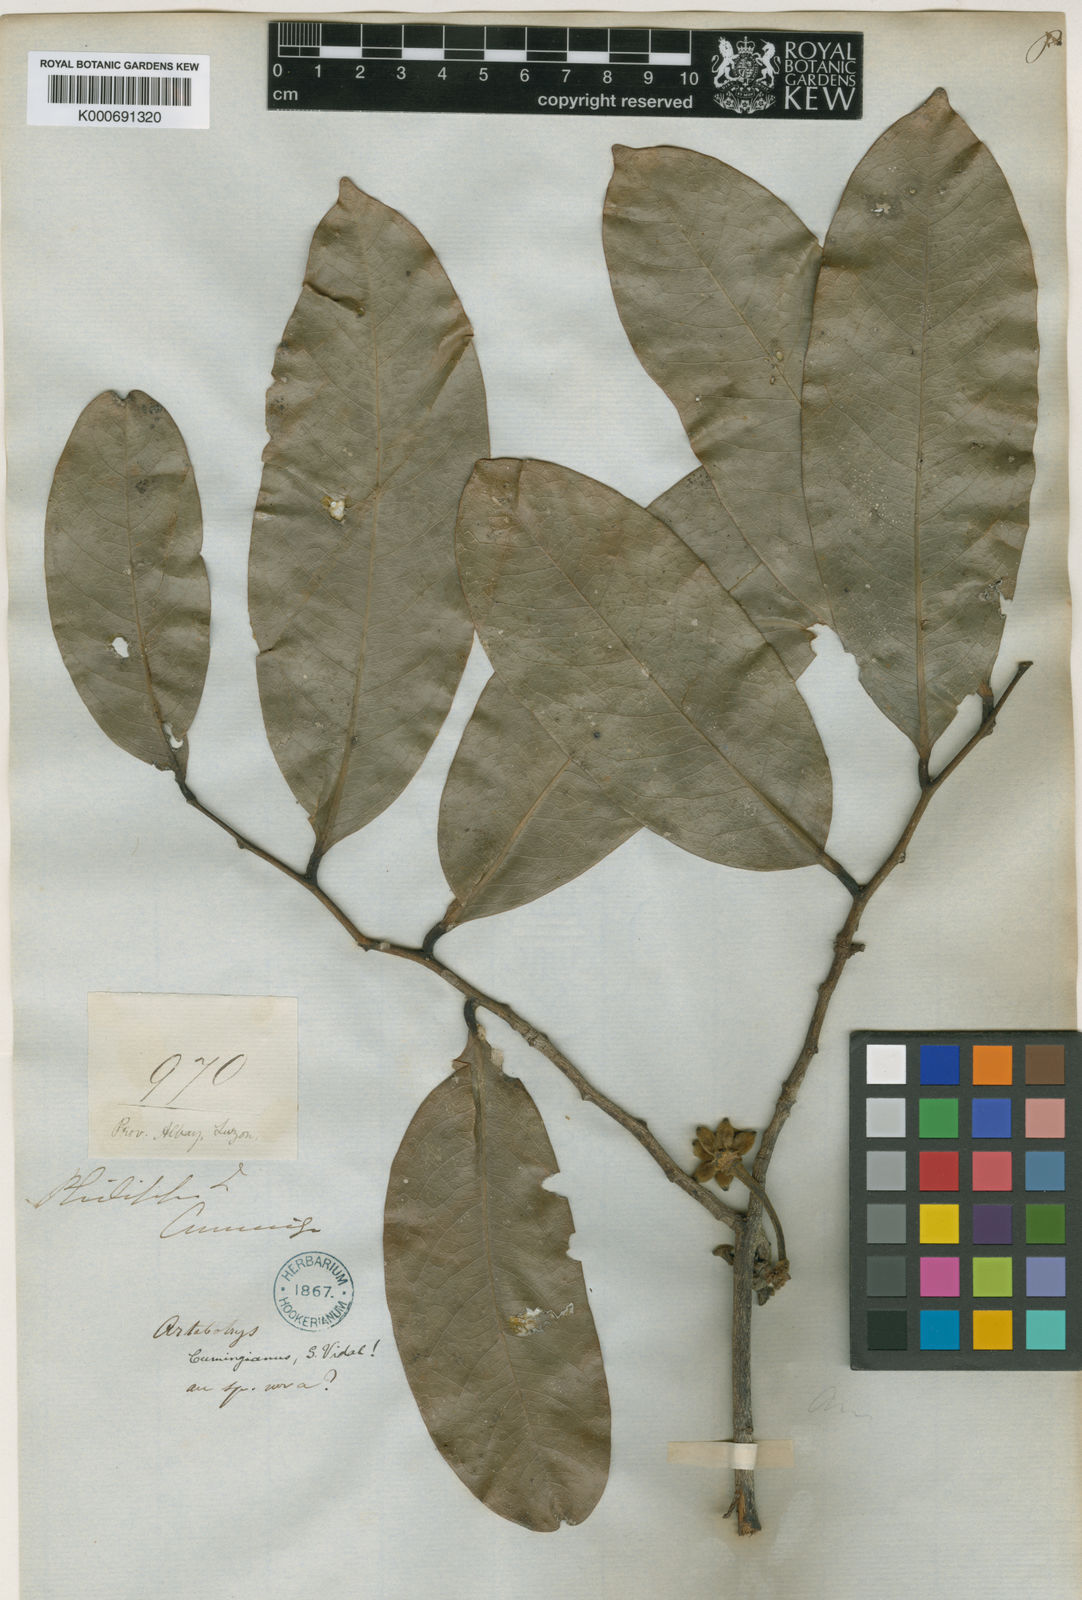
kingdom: Plantae
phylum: Tracheophyta
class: Magnoliopsida
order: Magnoliales
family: Annonaceae
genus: Artabotrys
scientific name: Artabotrys cumingianus
